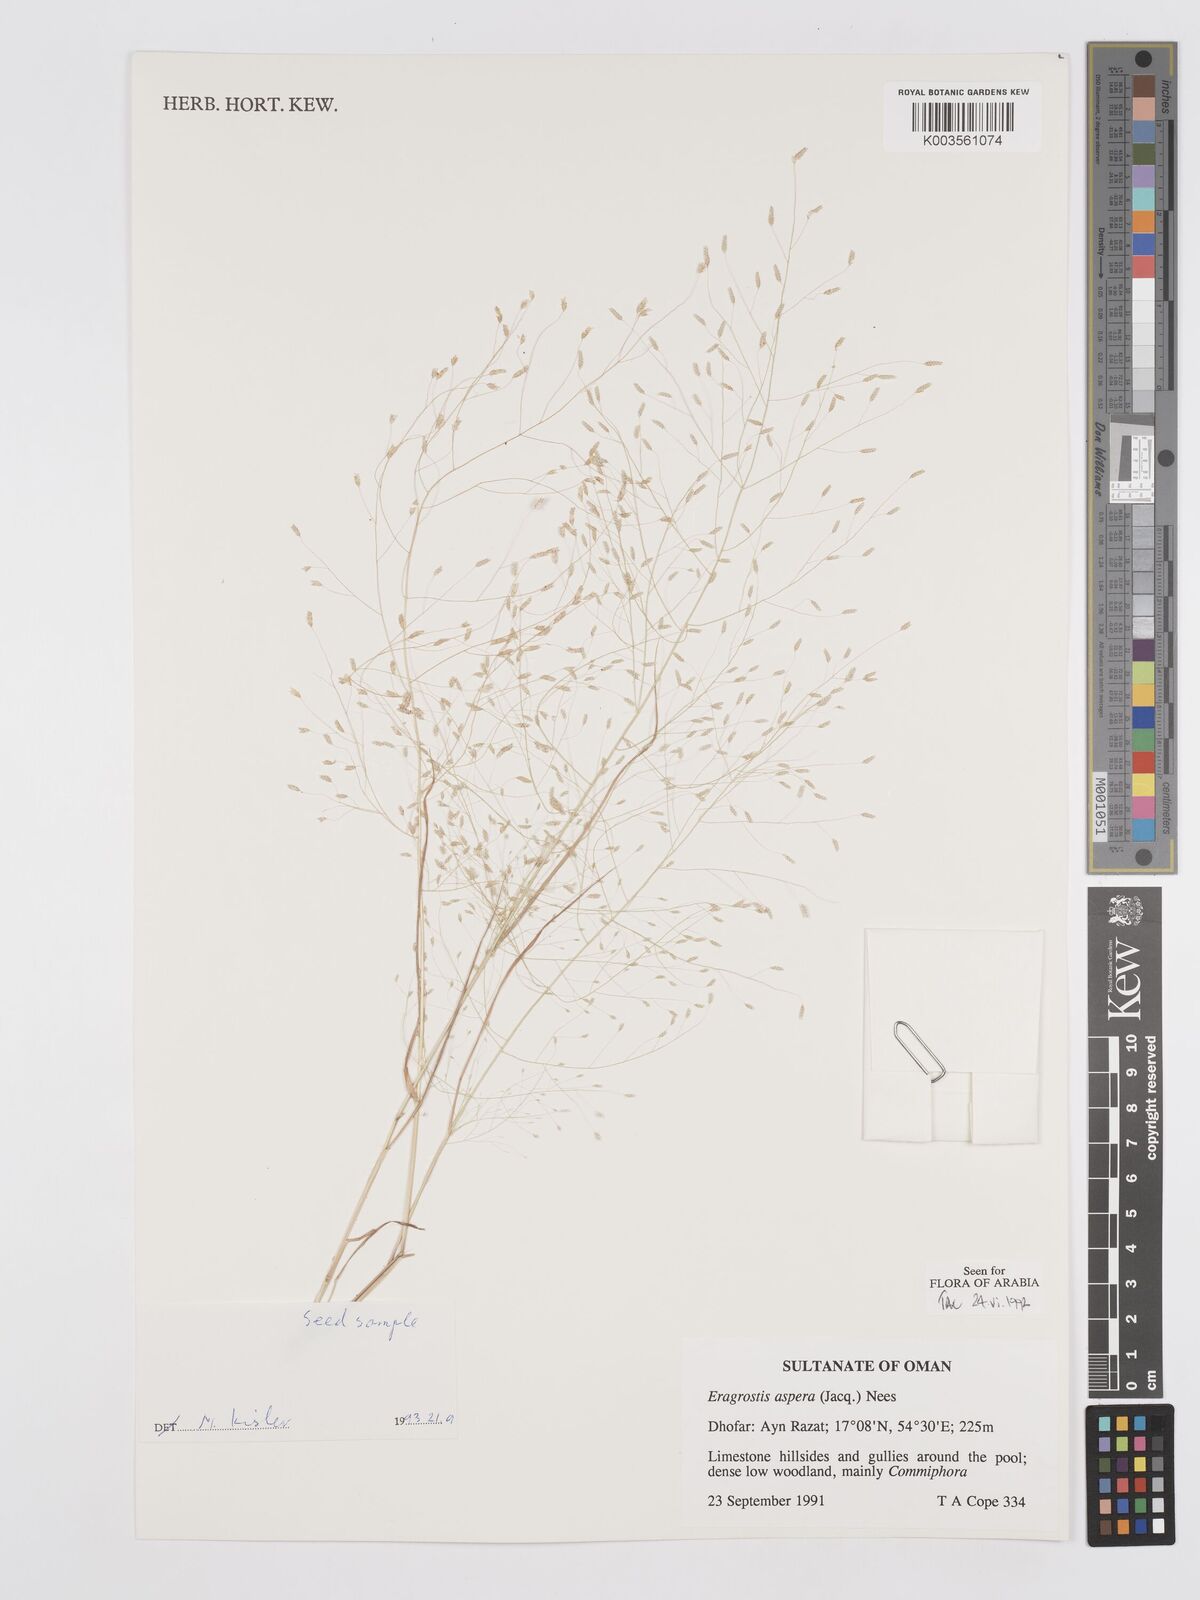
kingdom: Plantae
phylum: Tracheophyta
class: Liliopsida
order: Poales
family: Poaceae
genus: Eragrostis
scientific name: Eragrostis aspera
